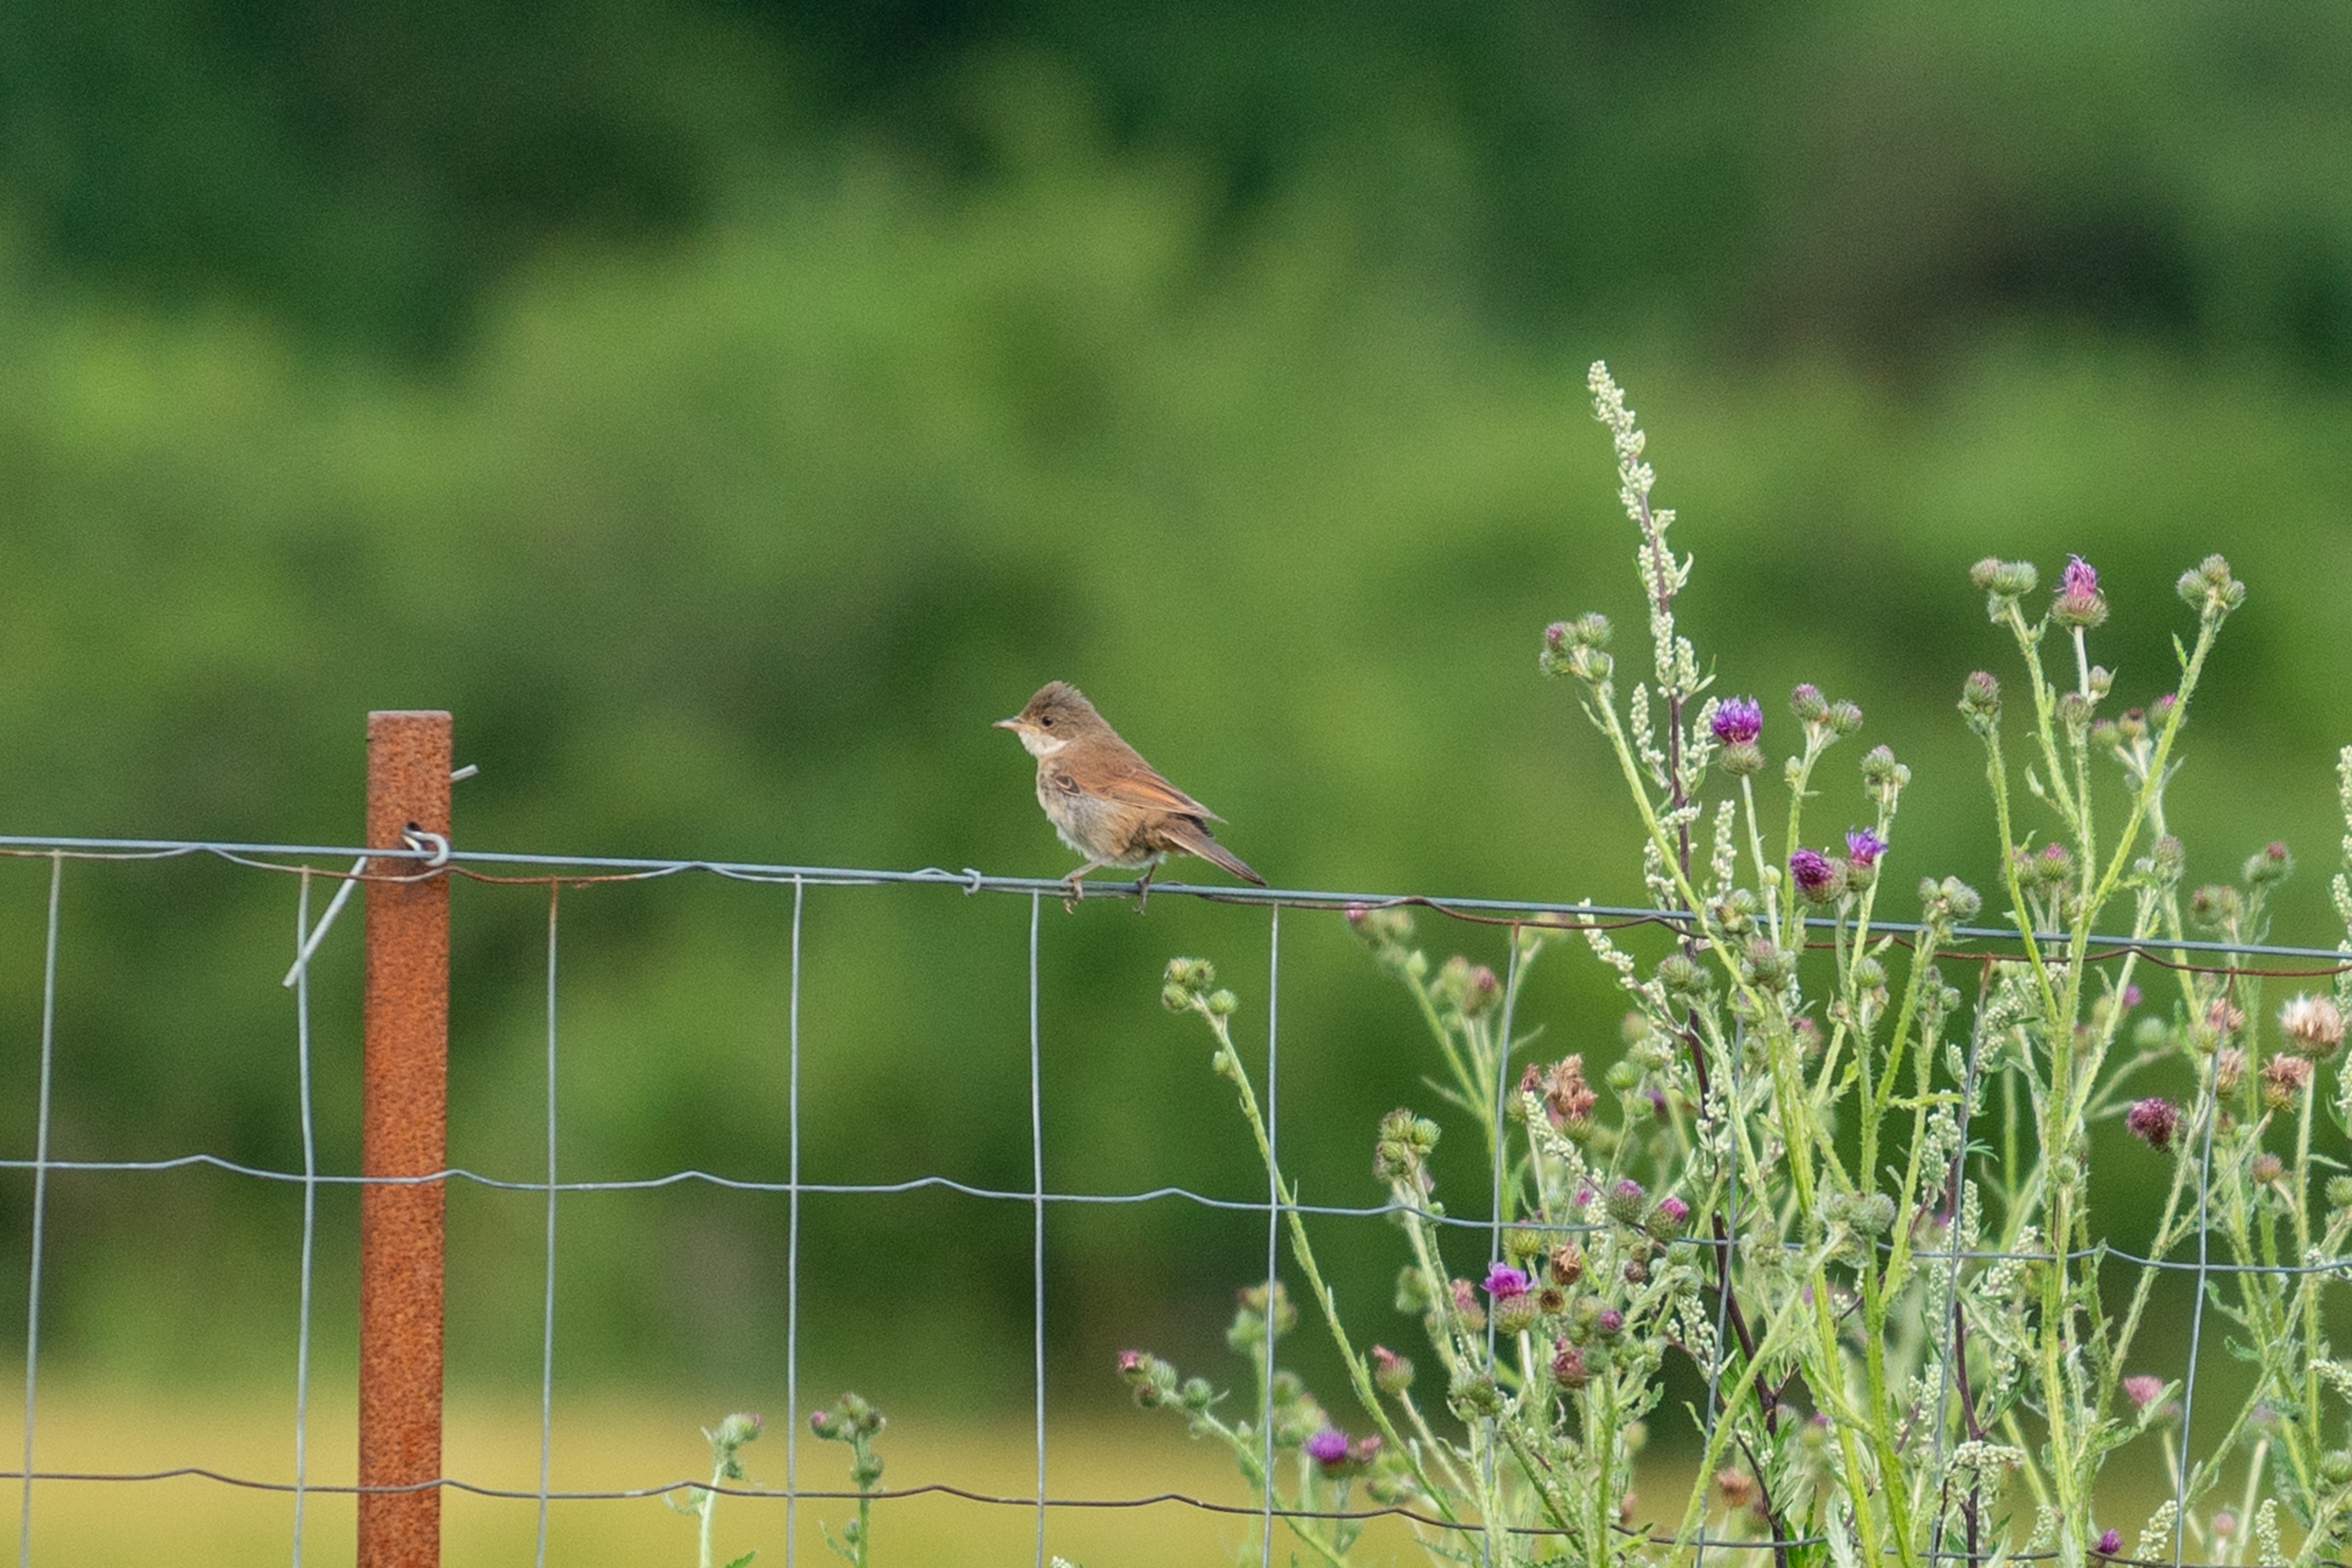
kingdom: Animalia
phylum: Chordata
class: Aves
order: Passeriformes
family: Sylviidae
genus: Sylvia
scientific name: Sylvia communis
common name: Tornsanger
